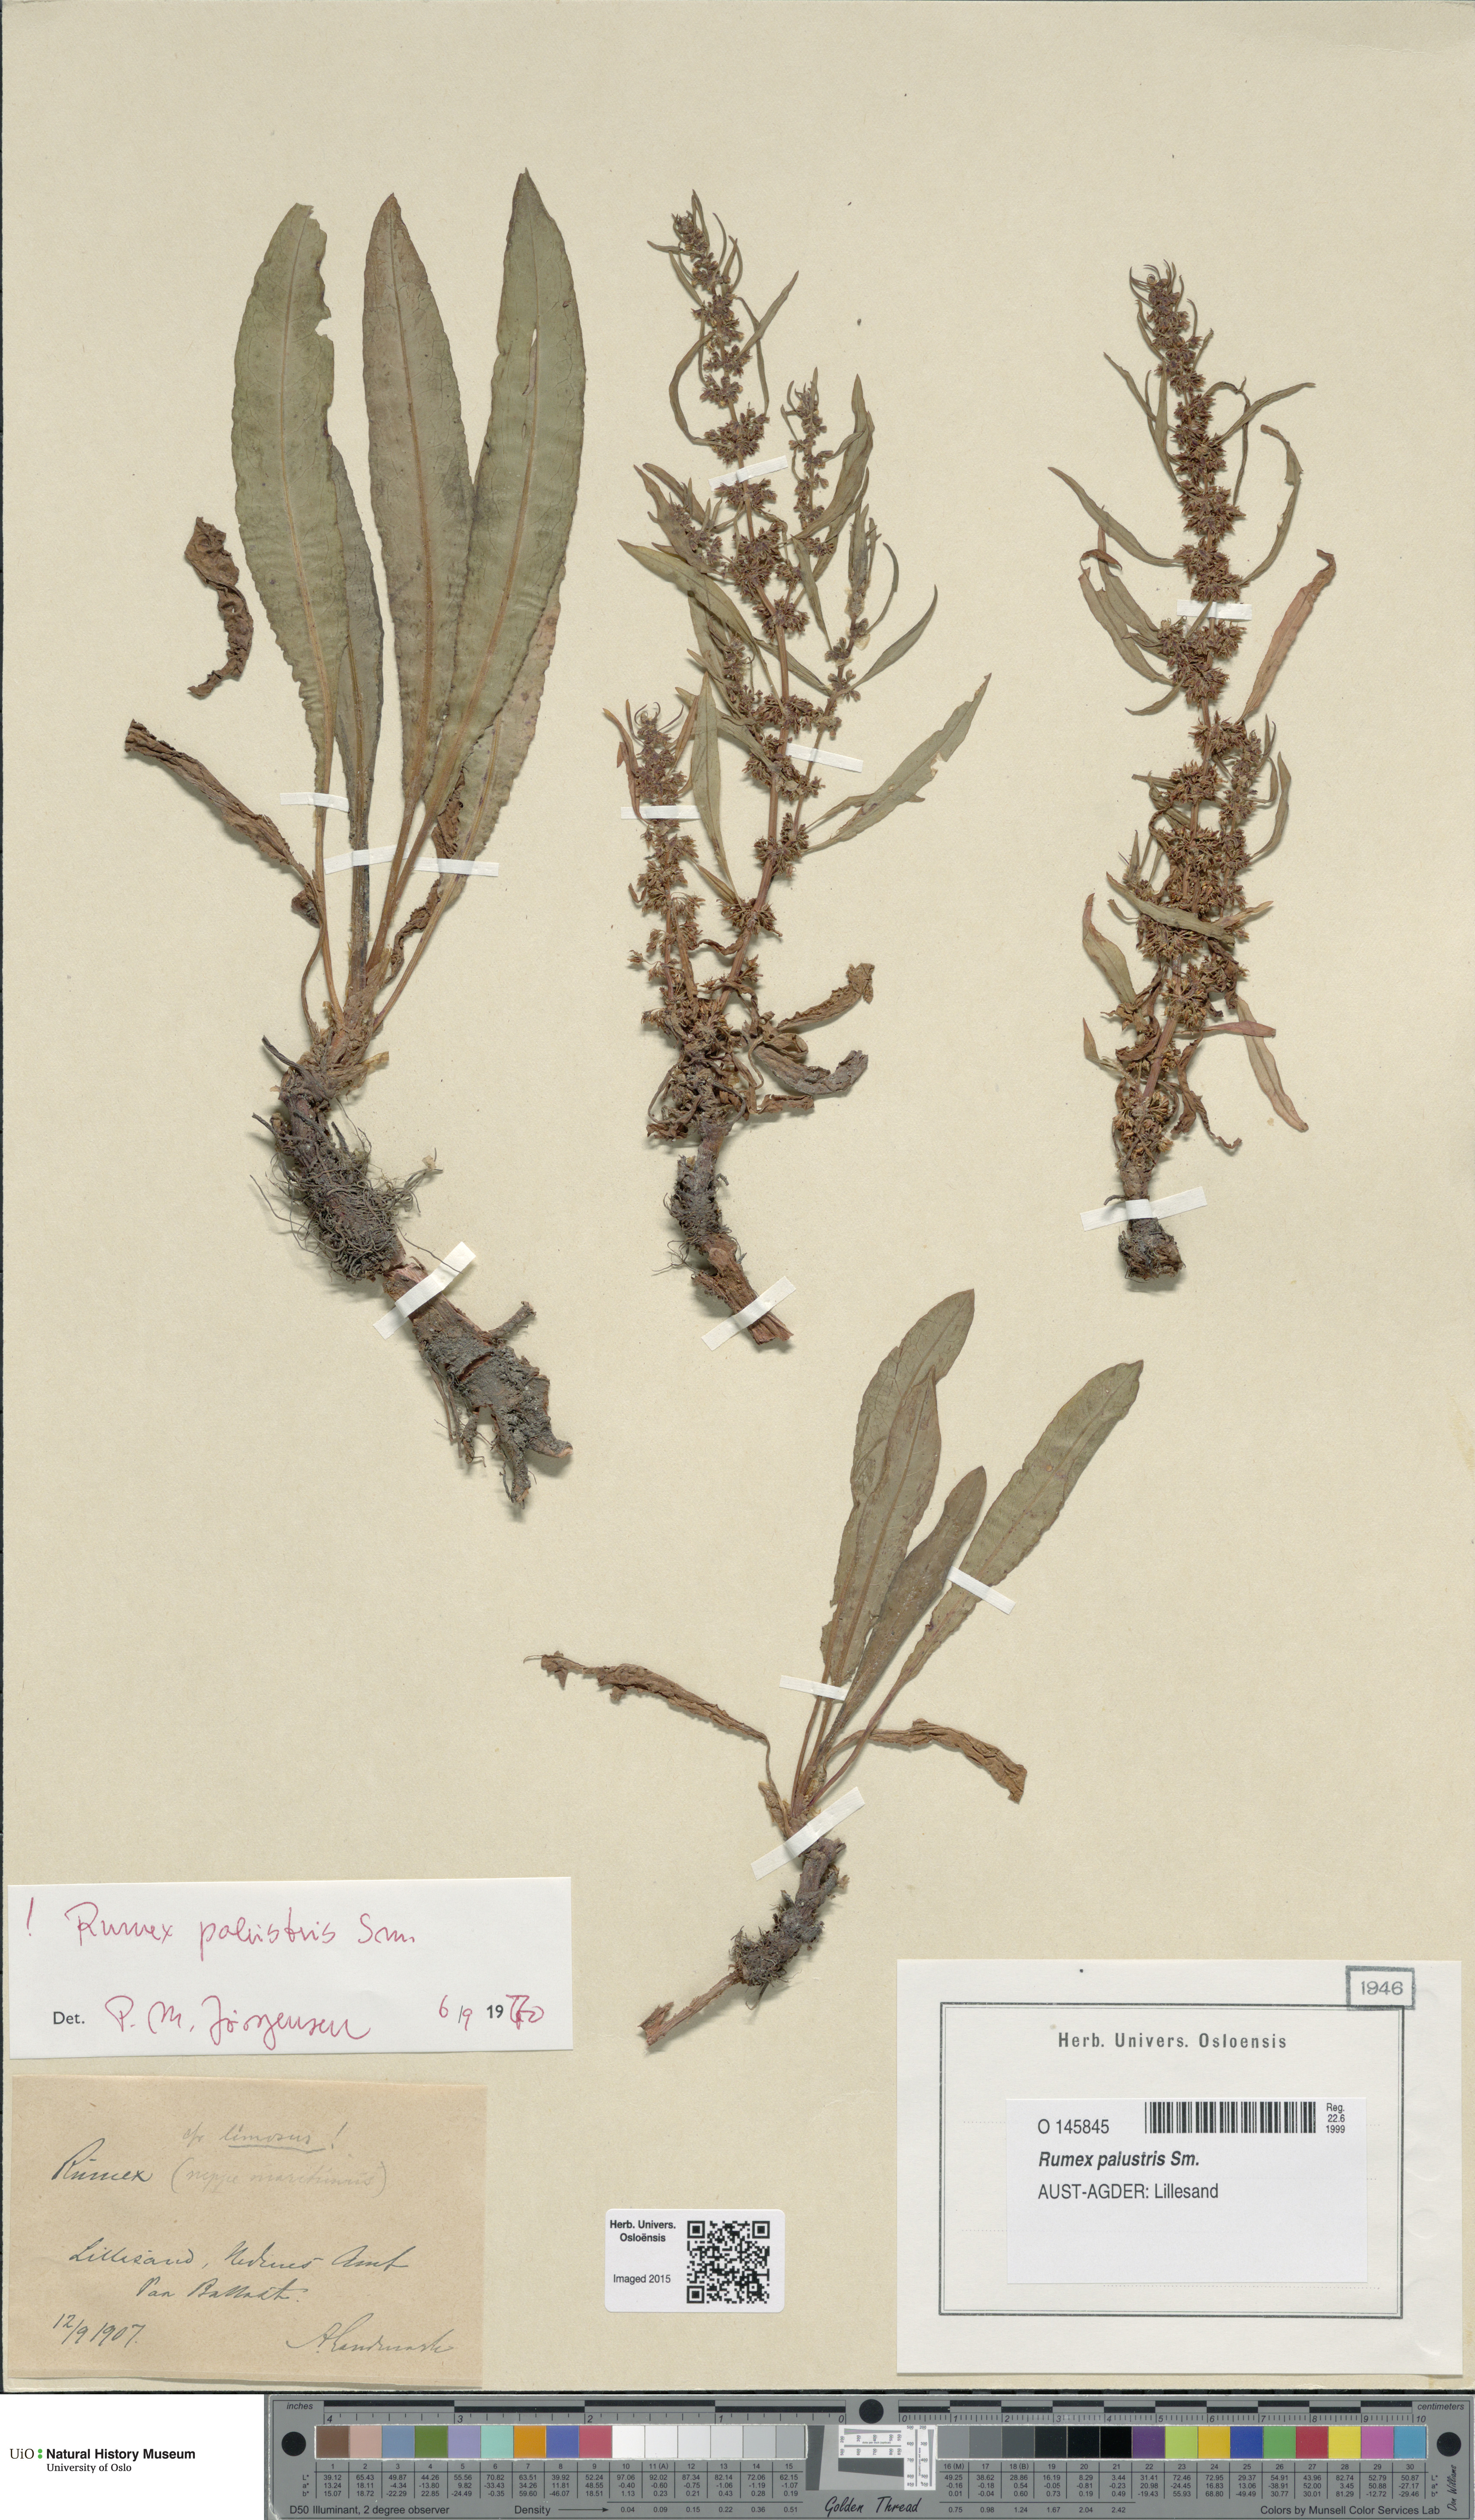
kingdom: Plantae
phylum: Tracheophyta
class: Magnoliopsida
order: Caryophyllales
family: Polygonaceae
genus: Rumex
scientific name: Rumex palustris
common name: Marsh dock
